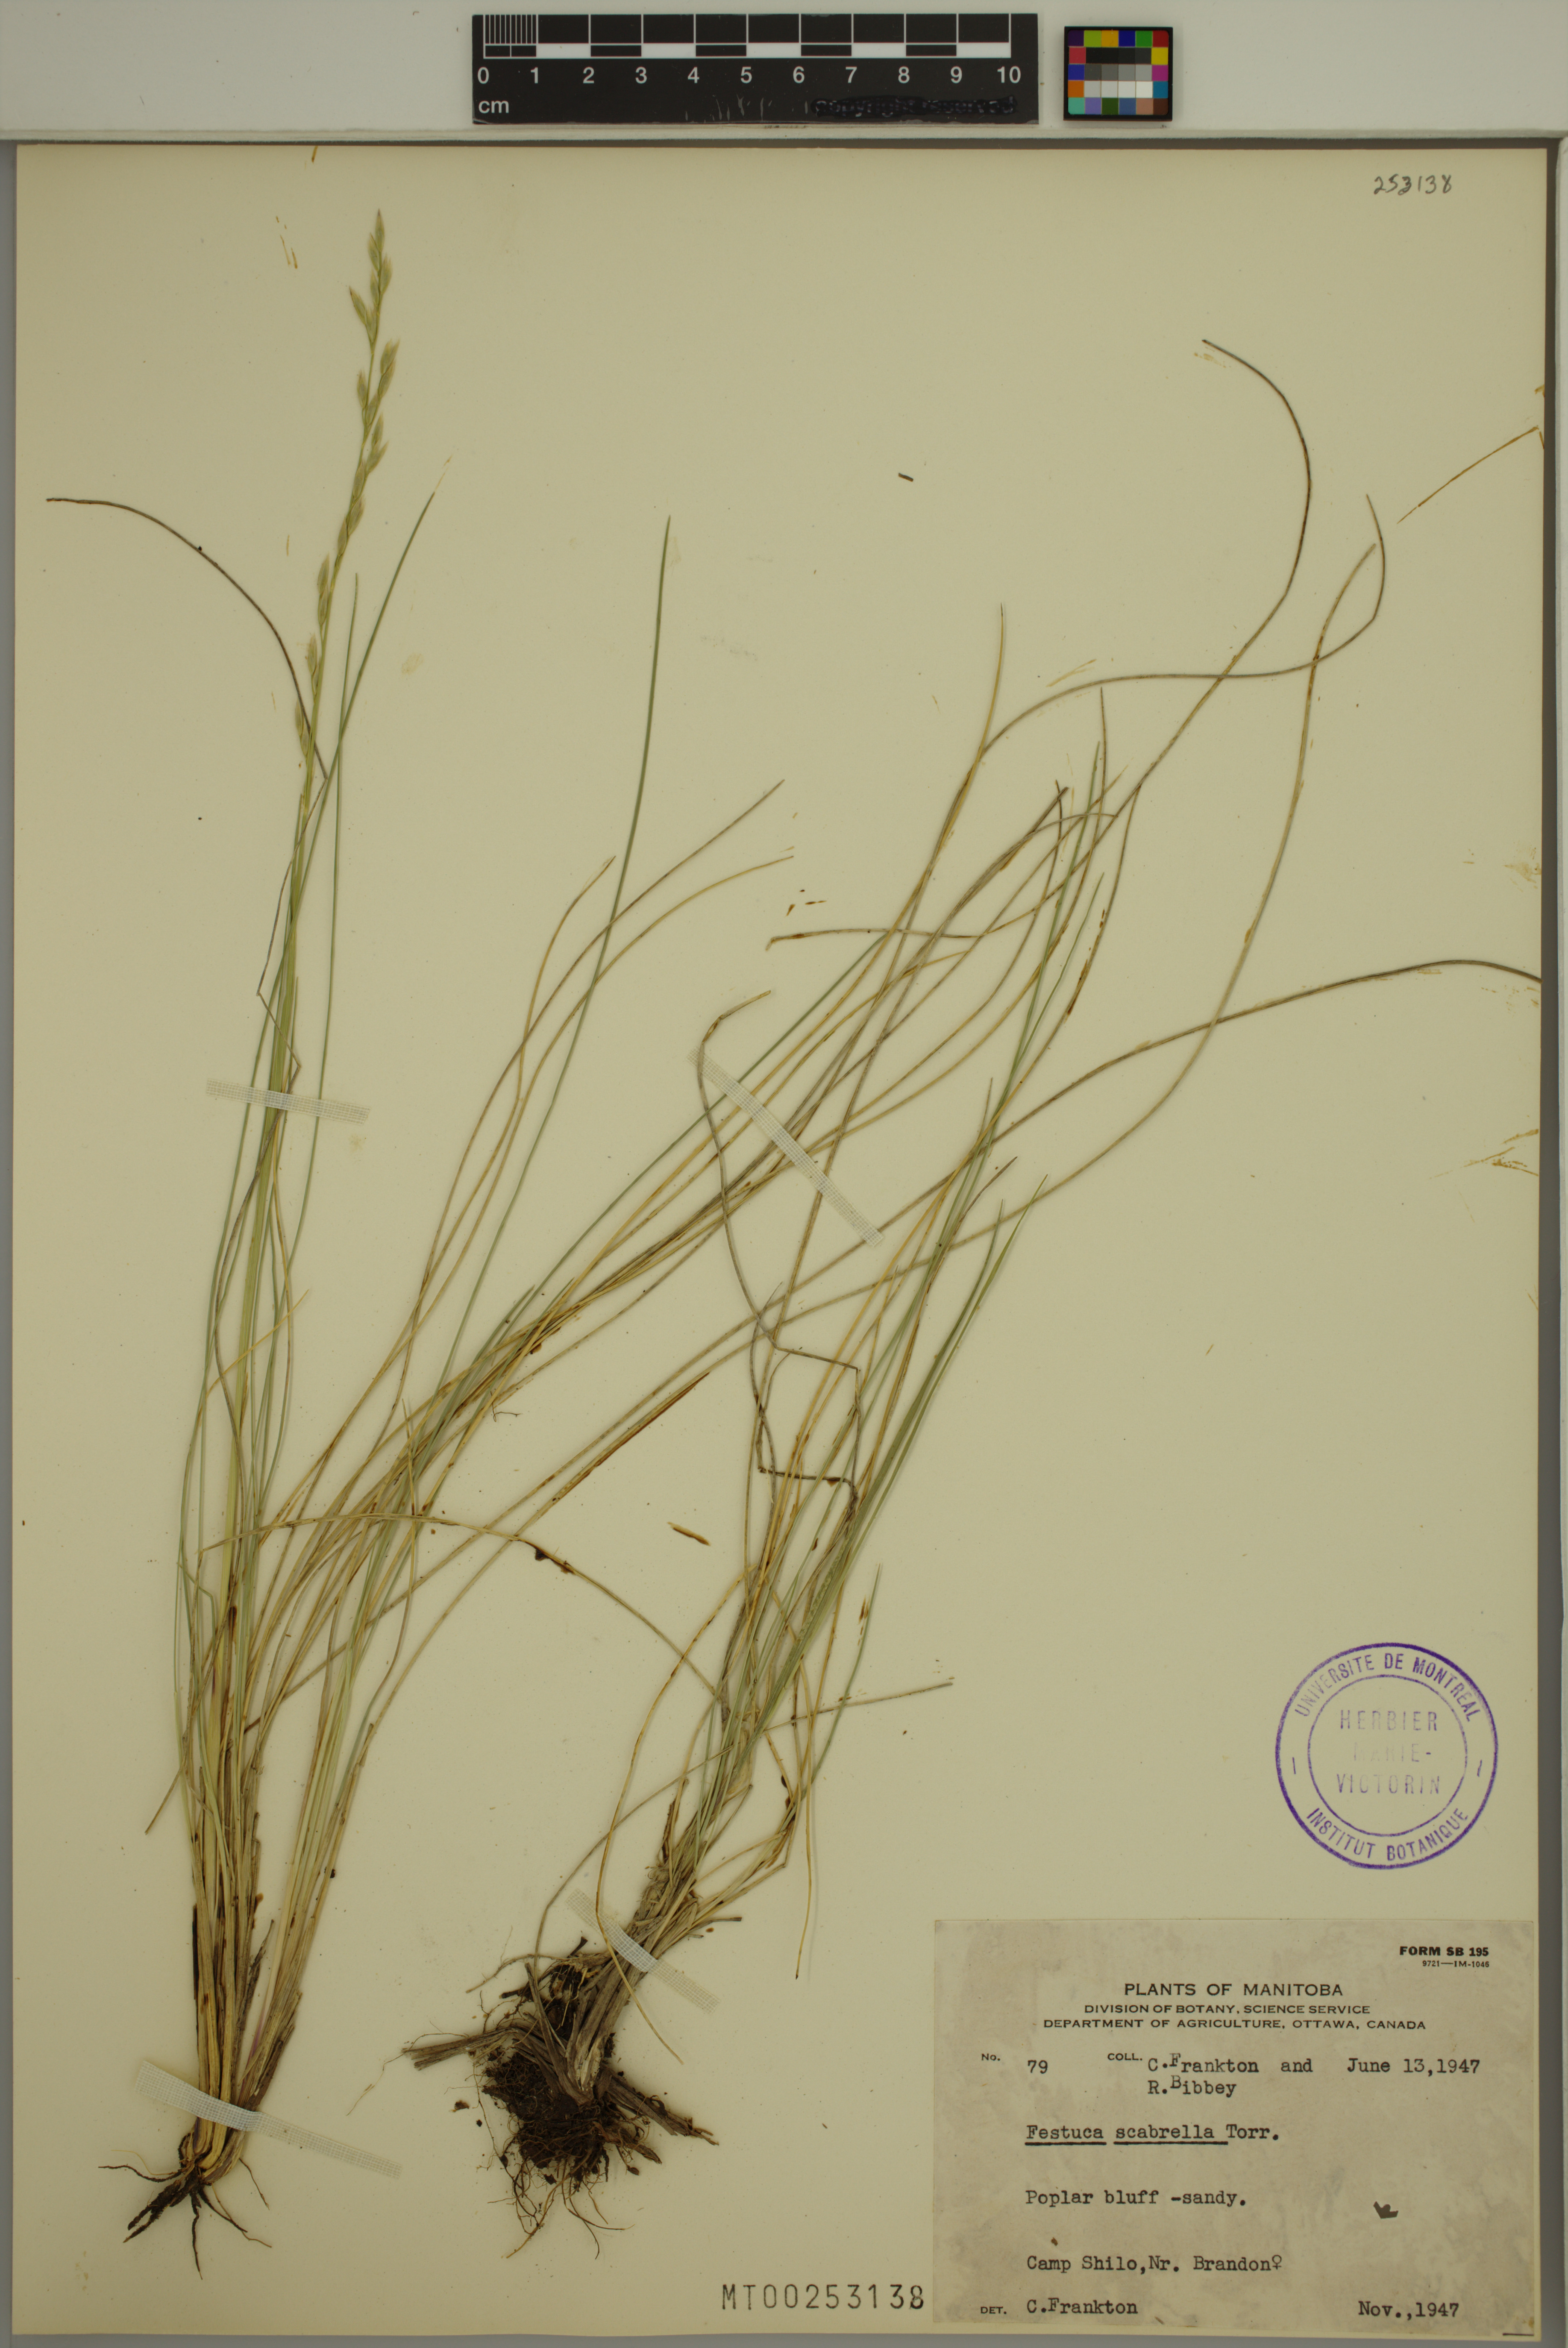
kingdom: Plantae
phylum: Tracheophyta
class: Liliopsida
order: Poales
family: Poaceae
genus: Festuca
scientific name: Festuca
